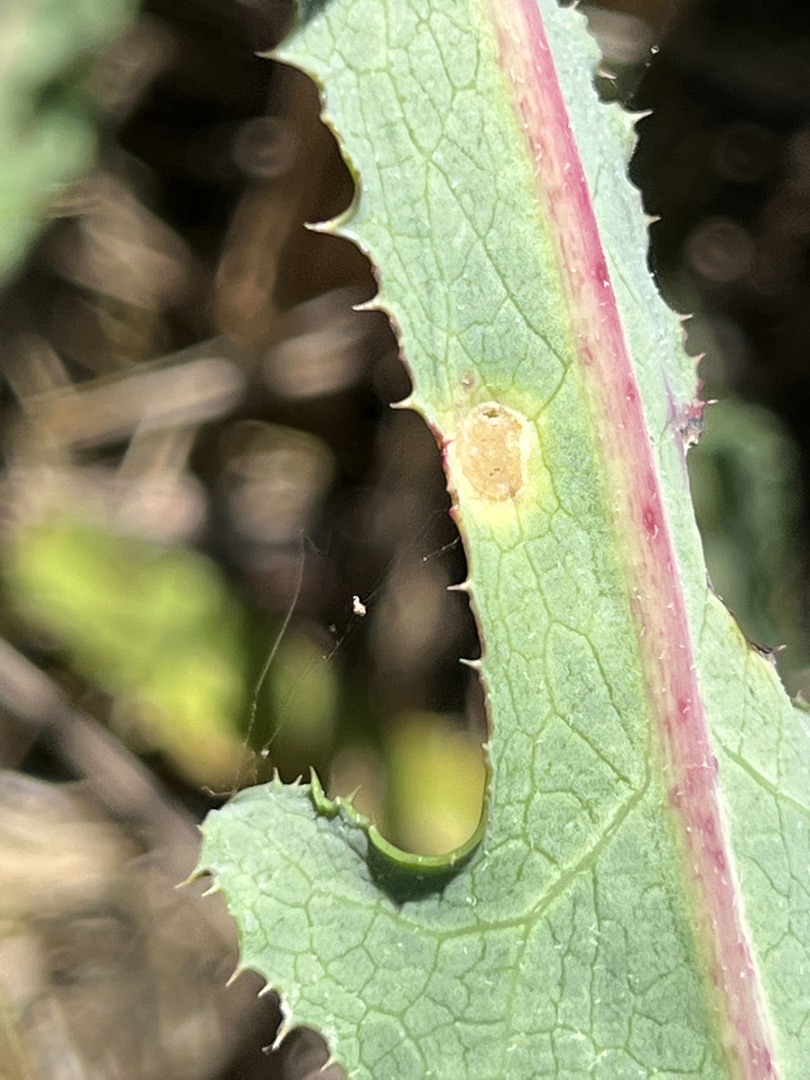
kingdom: Animalia
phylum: Arthropoda
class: Insecta
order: Diptera
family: Cecidomyiidae
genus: Cystiphora
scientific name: Cystiphora sonchi
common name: Svineblæregalmyg
